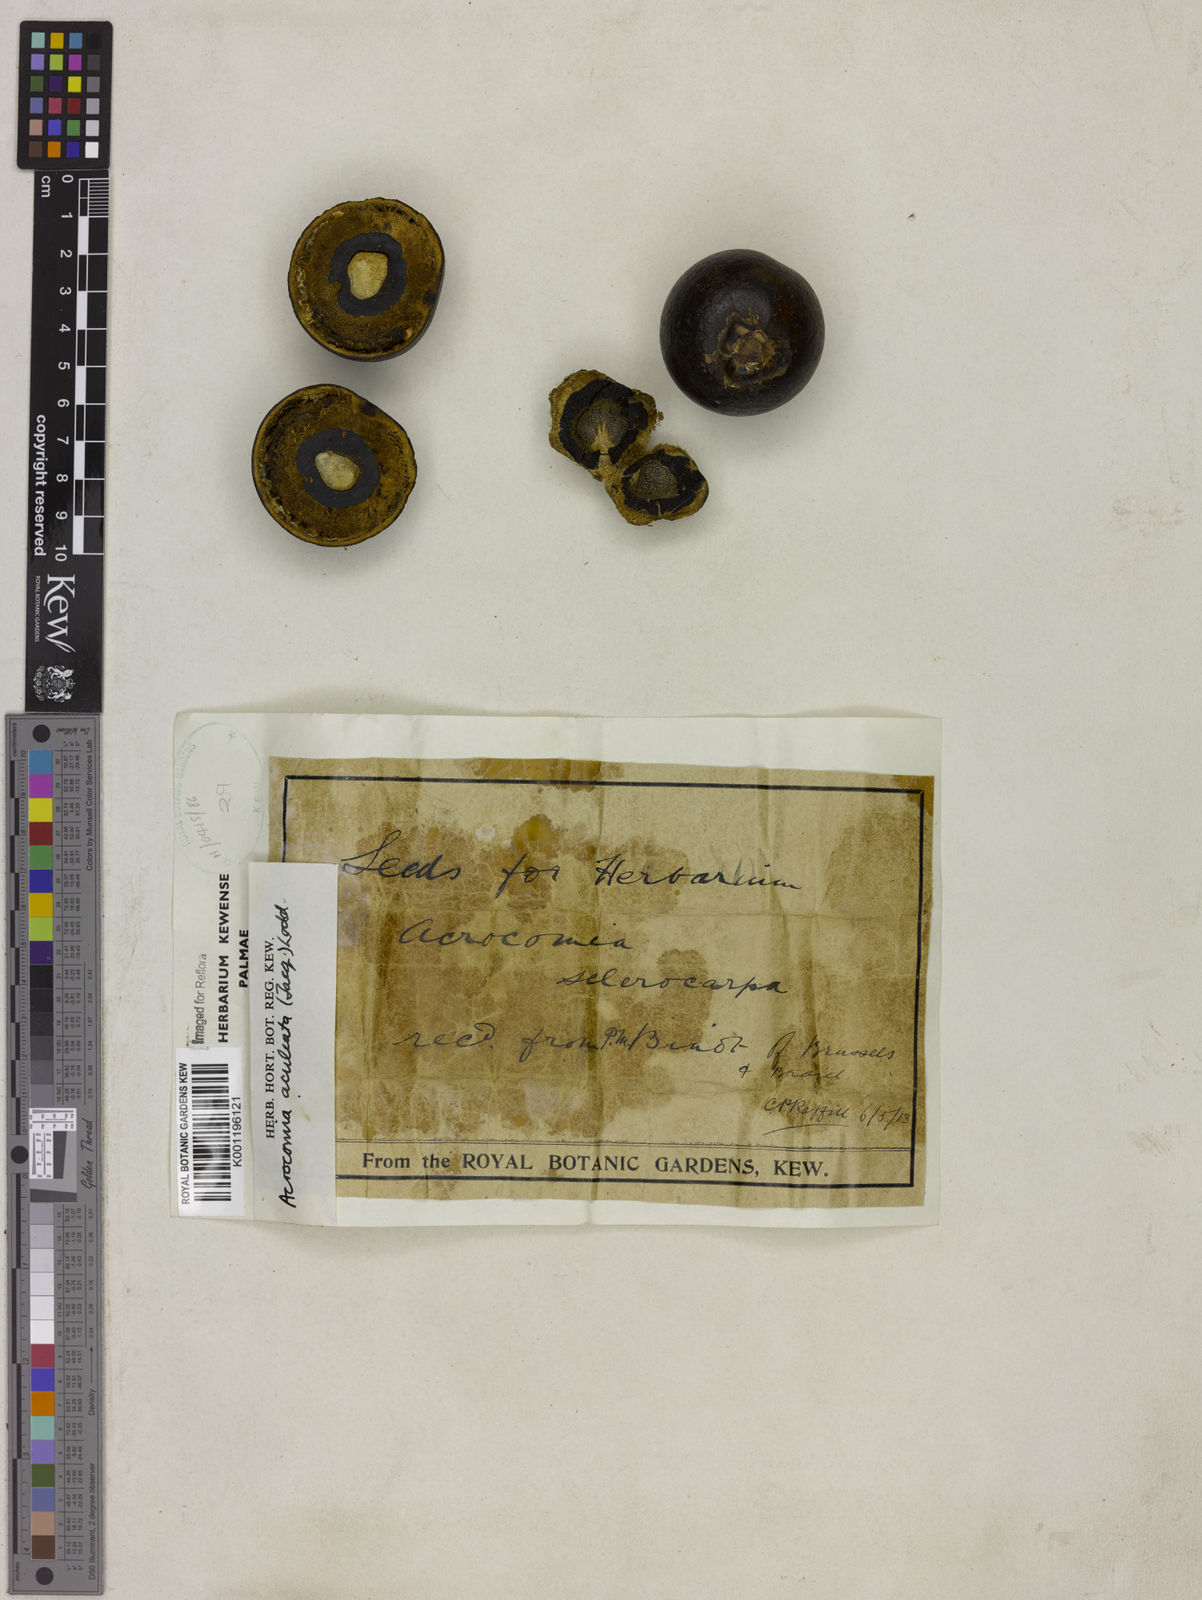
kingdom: Plantae
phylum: Tracheophyta
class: Liliopsida
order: Arecales
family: Arecaceae
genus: Acrocomia
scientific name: Acrocomia aculeata
